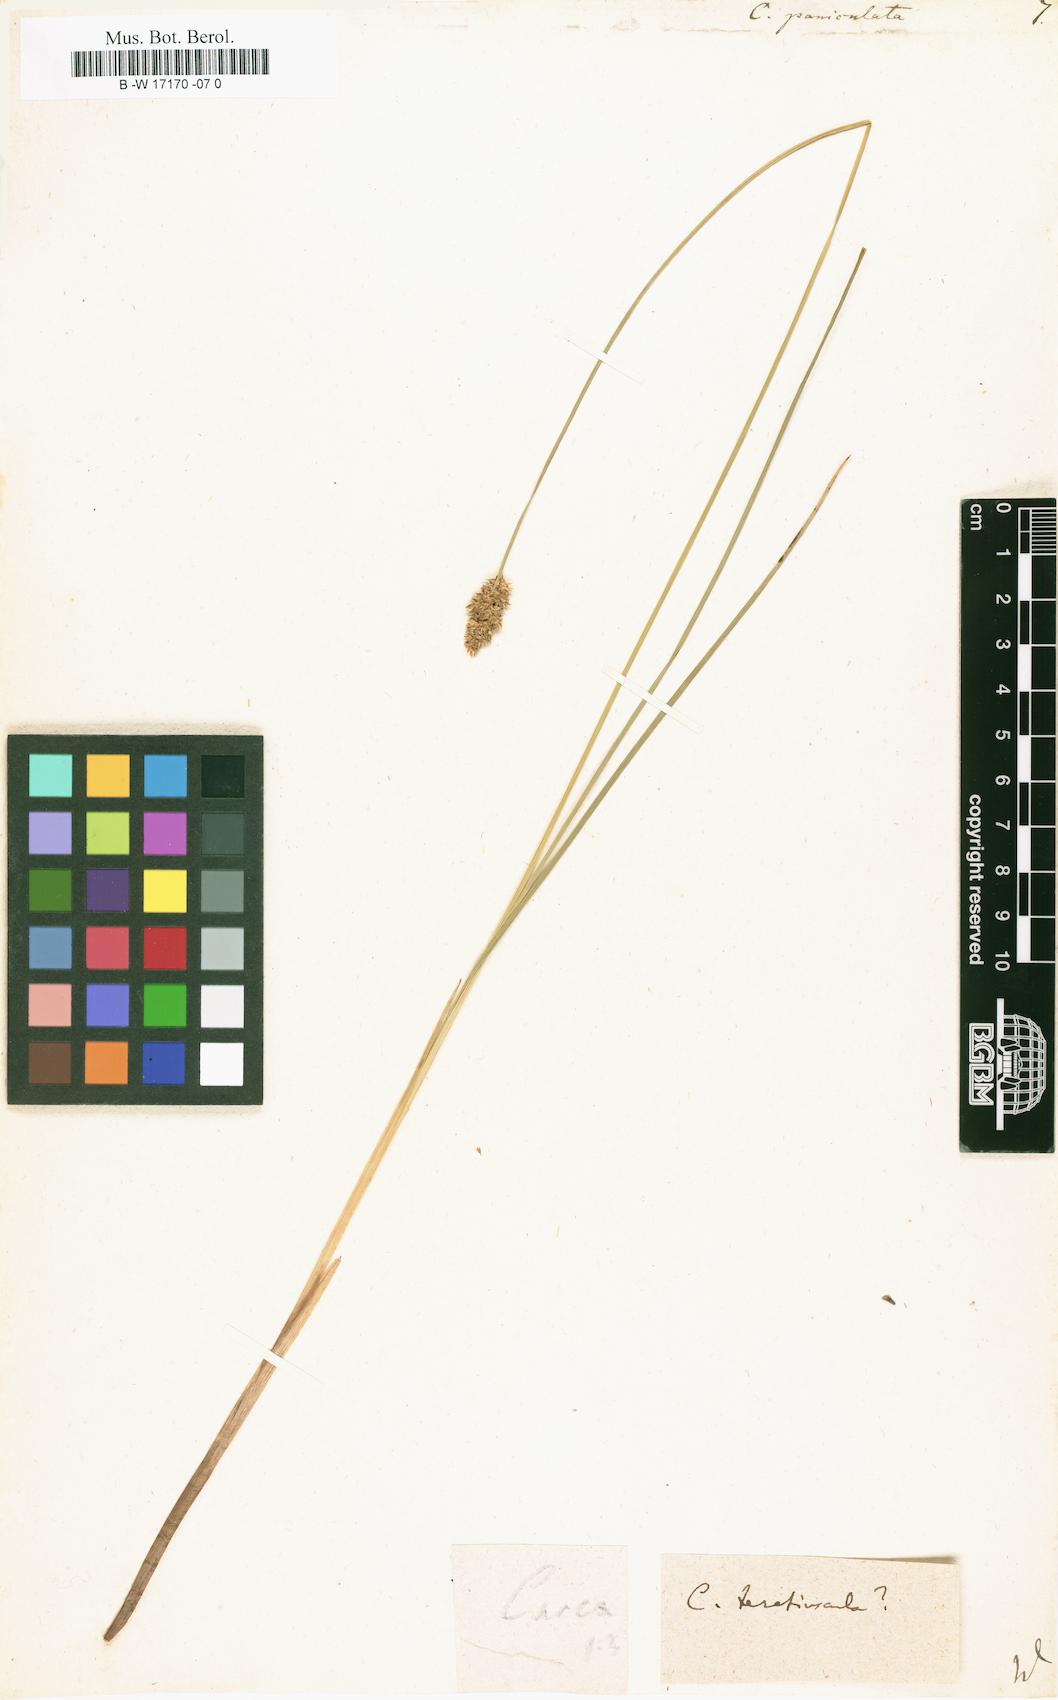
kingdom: Plantae
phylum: Tracheophyta
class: Liliopsida
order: Poales
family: Cyperaceae
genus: Carex
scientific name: Carex paniculata
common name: Greater tussock-sedge
